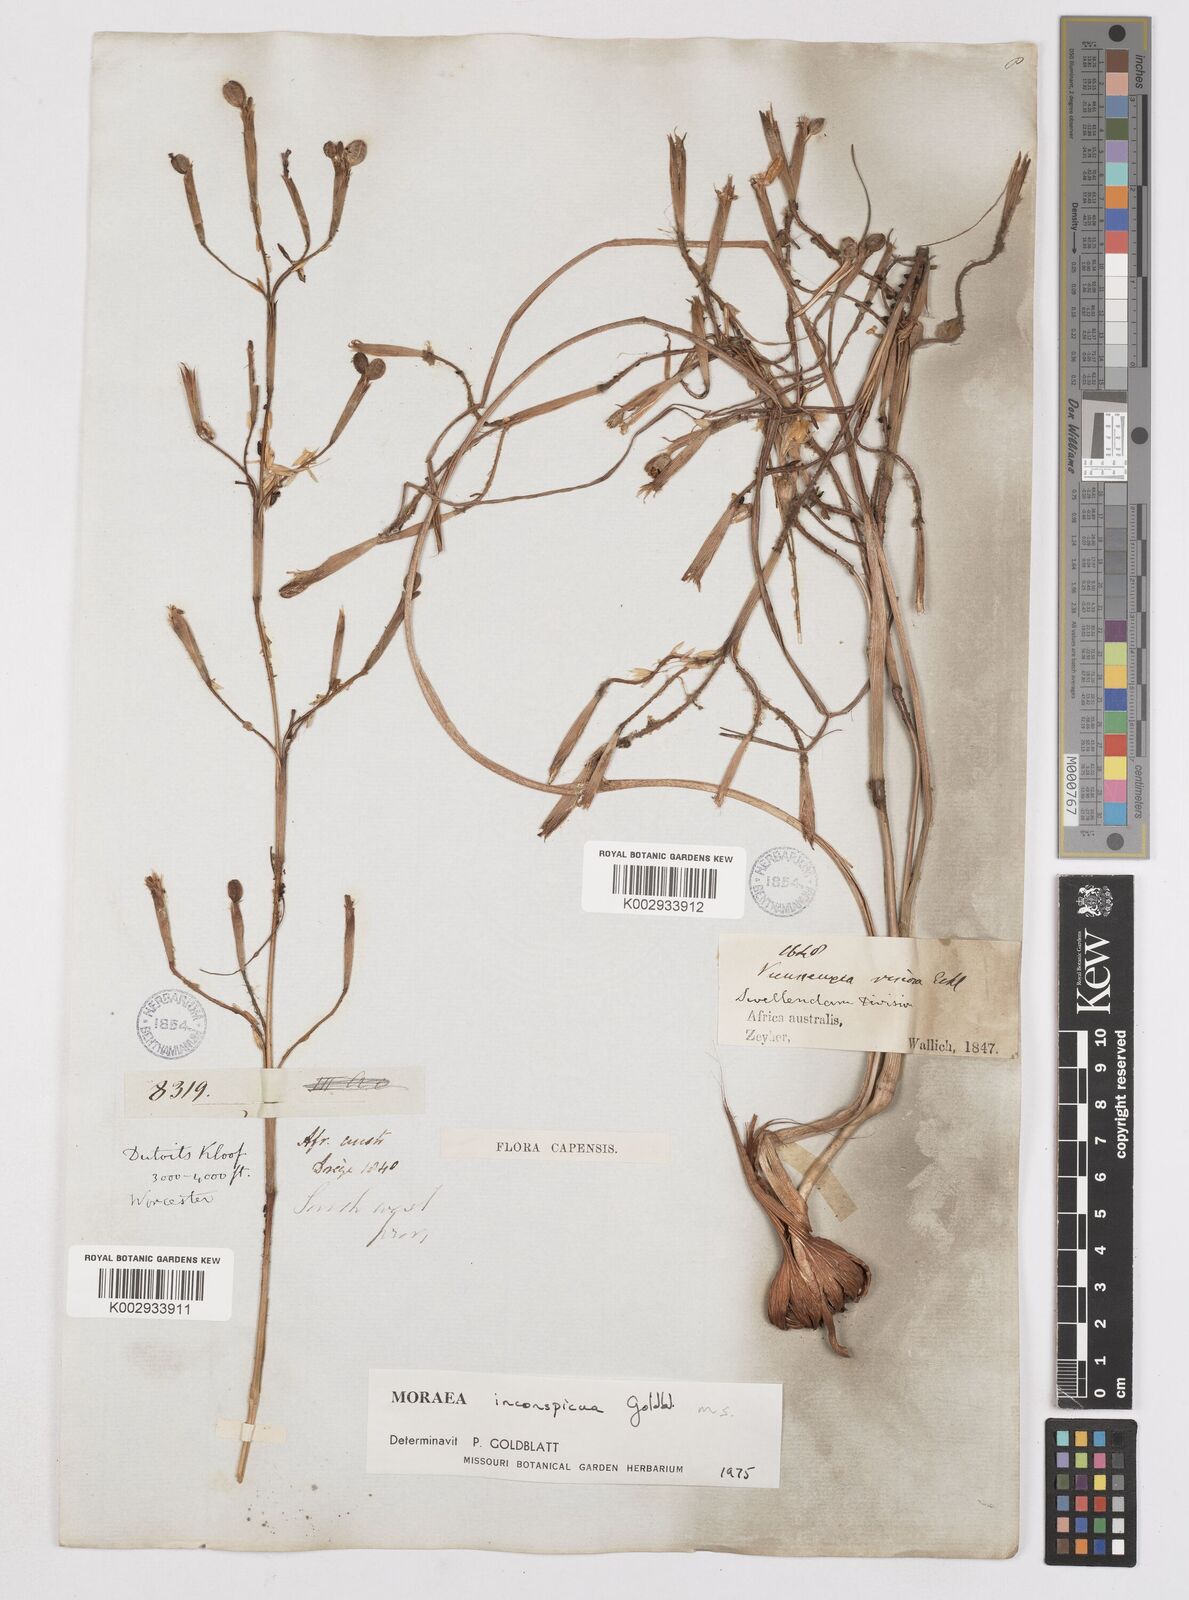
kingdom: Plantae
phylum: Tracheophyta
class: Liliopsida
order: Asparagales
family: Iridaceae
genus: Moraea
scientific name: Moraea inconspicua
